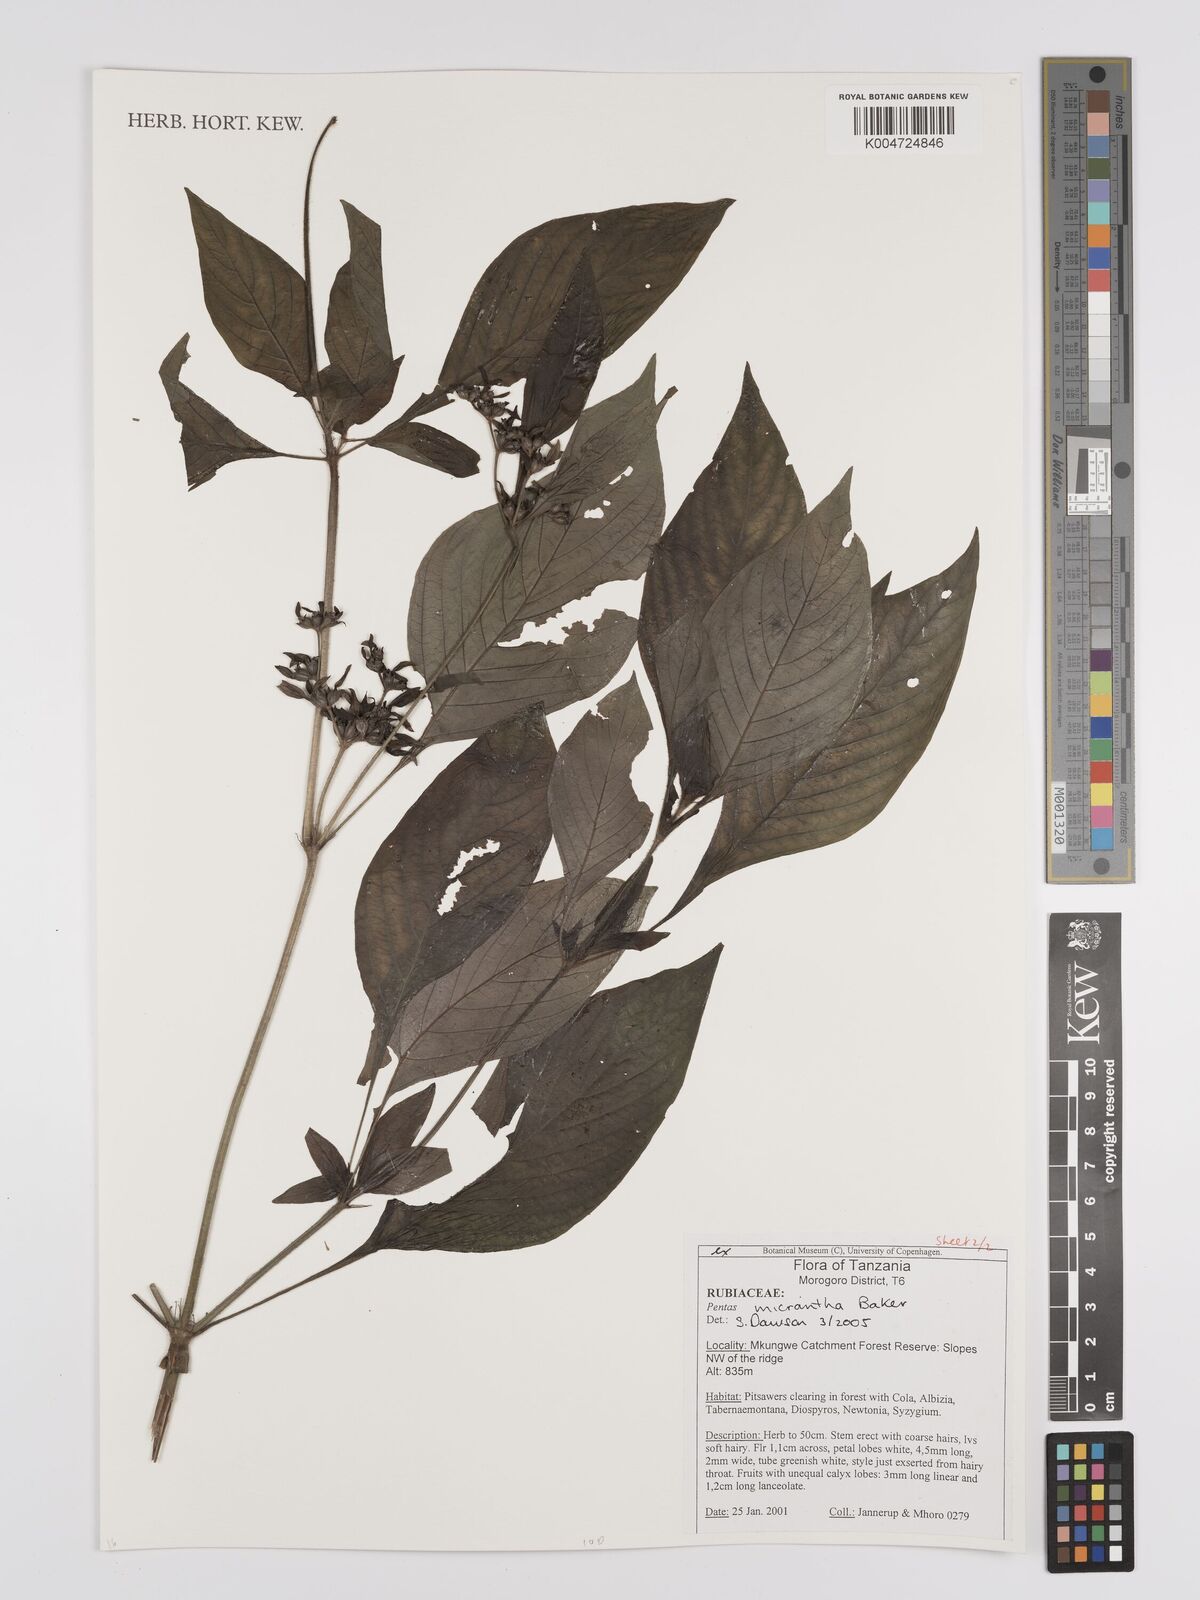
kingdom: Plantae
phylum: Tracheophyta
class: Magnoliopsida
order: Gentianales
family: Rubiaceae
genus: Pentas
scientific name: Pentas micrantha
